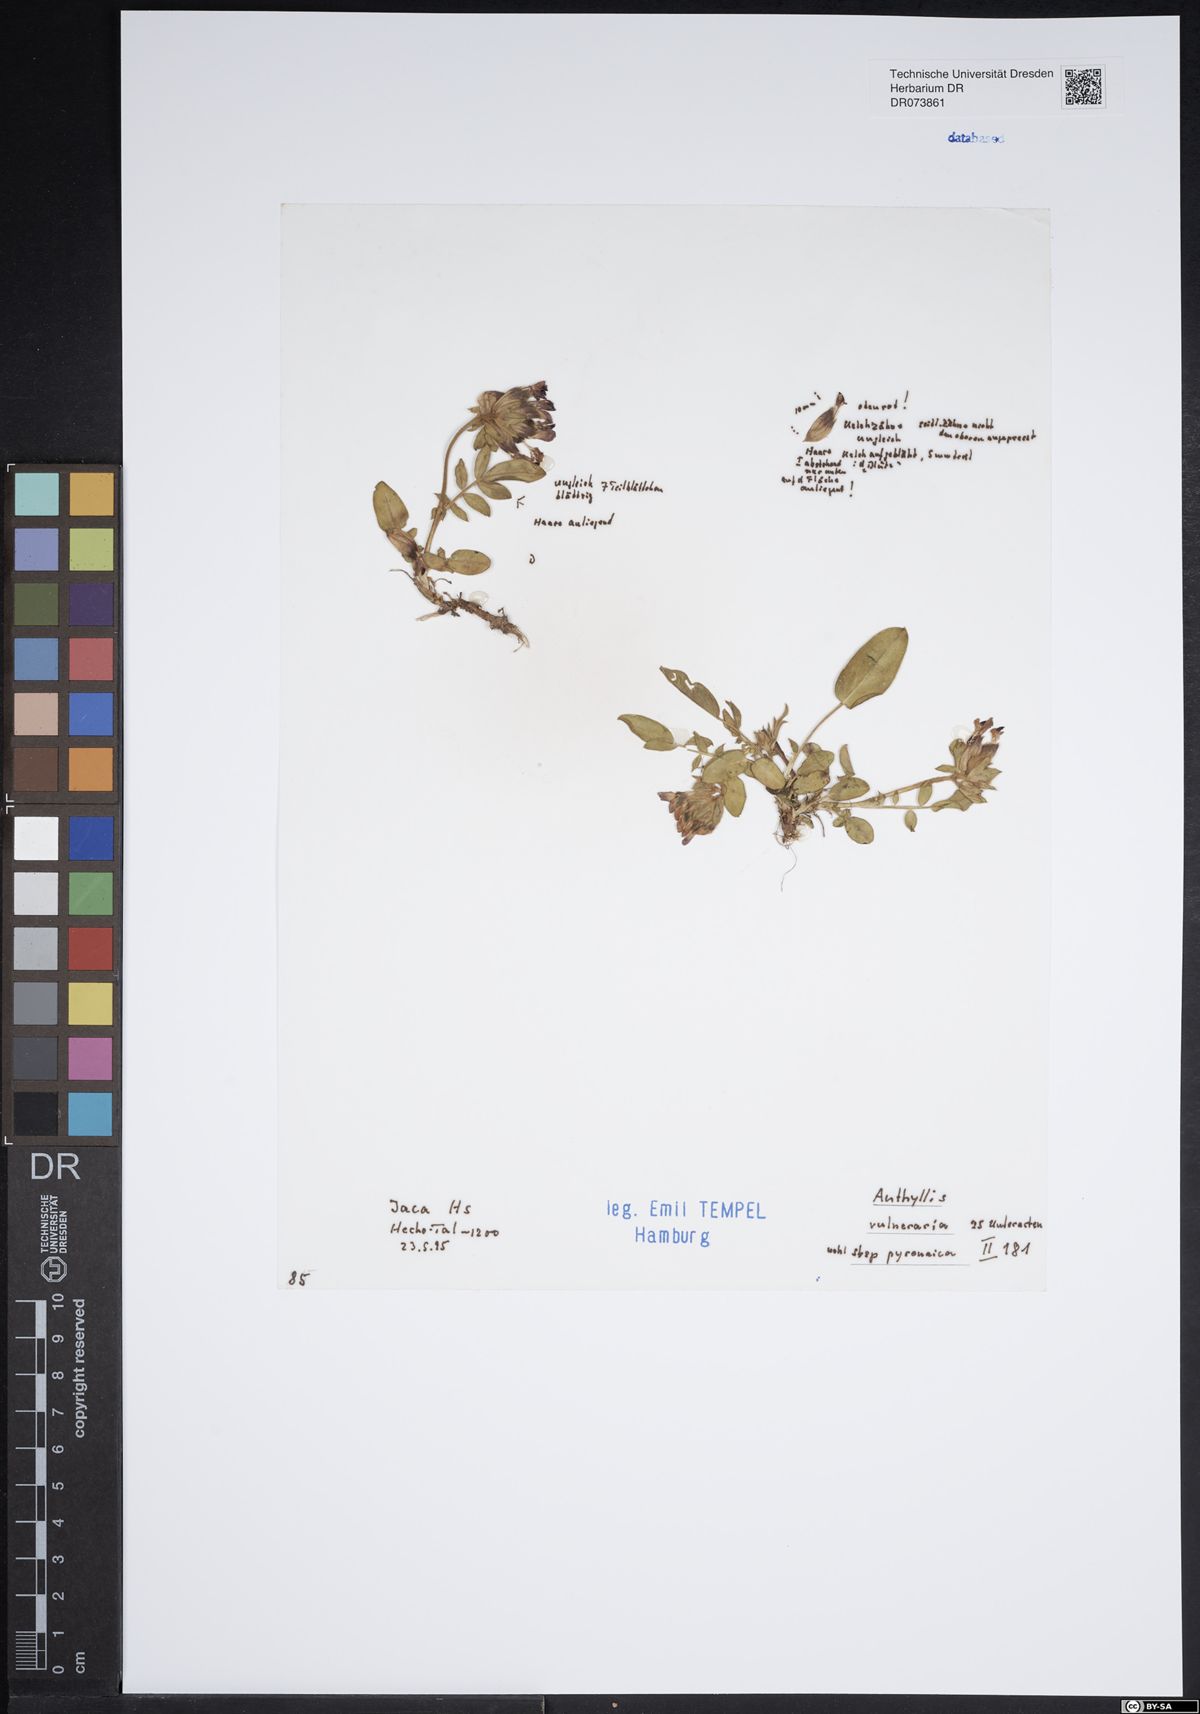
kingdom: Plantae
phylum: Tracheophyta
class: Magnoliopsida
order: Fabales
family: Fabaceae
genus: Anthyllis
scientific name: Anthyllis vulneraria
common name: Kidney vetch
